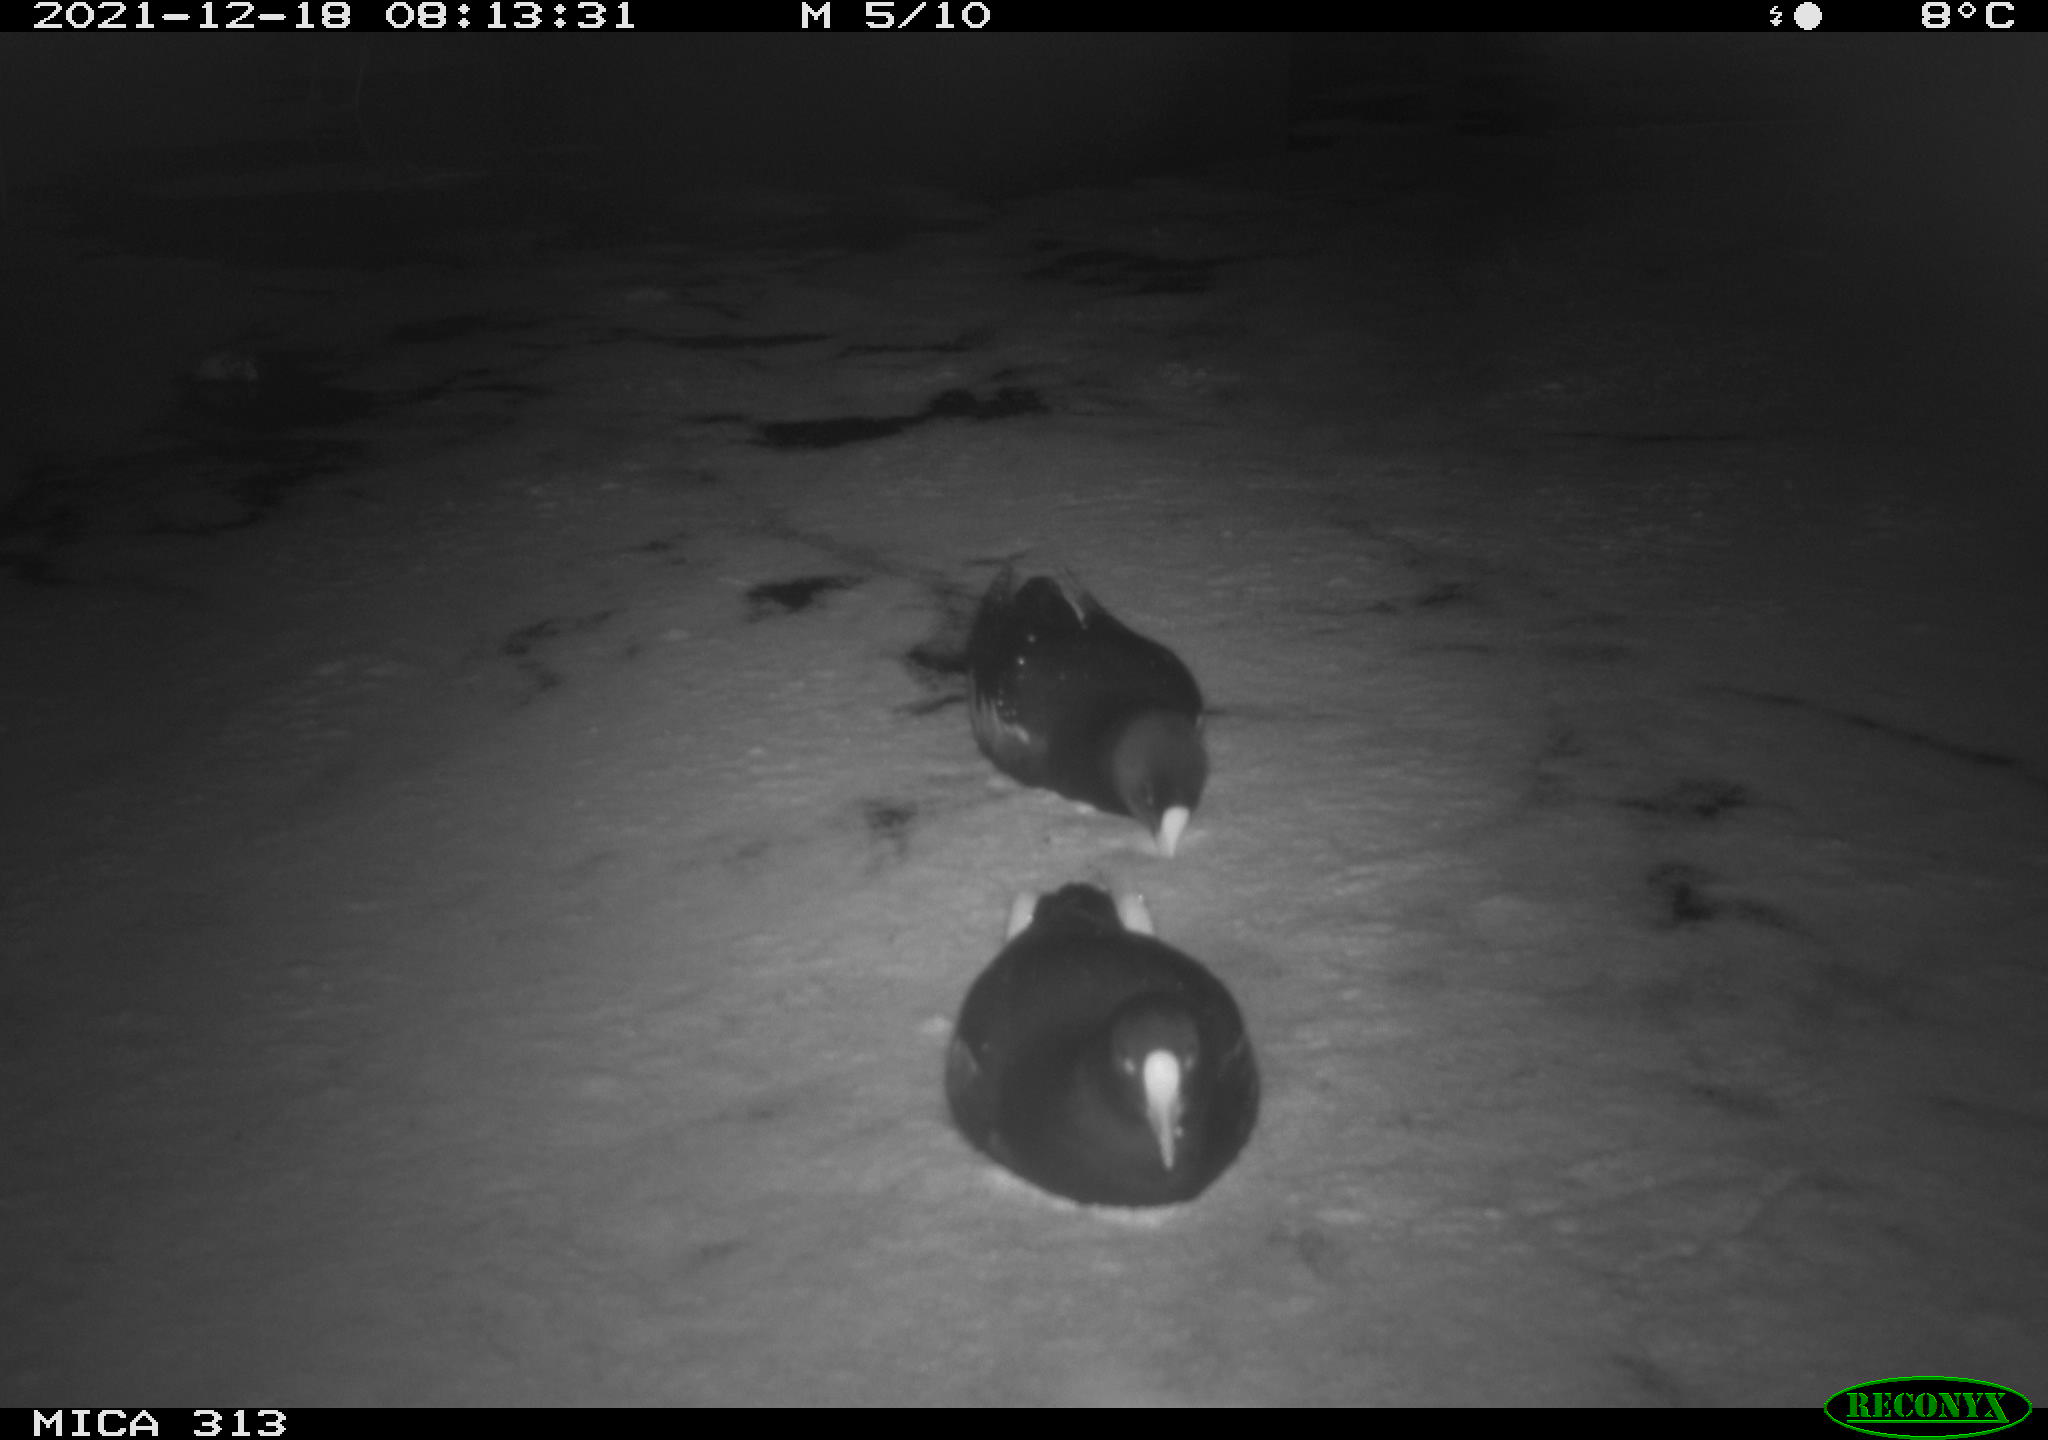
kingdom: Animalia
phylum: Chordata
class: Aves
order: Gruiformes
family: Rallidae
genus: Gallinula
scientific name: Gallinula chloropus
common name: Common moorhen
